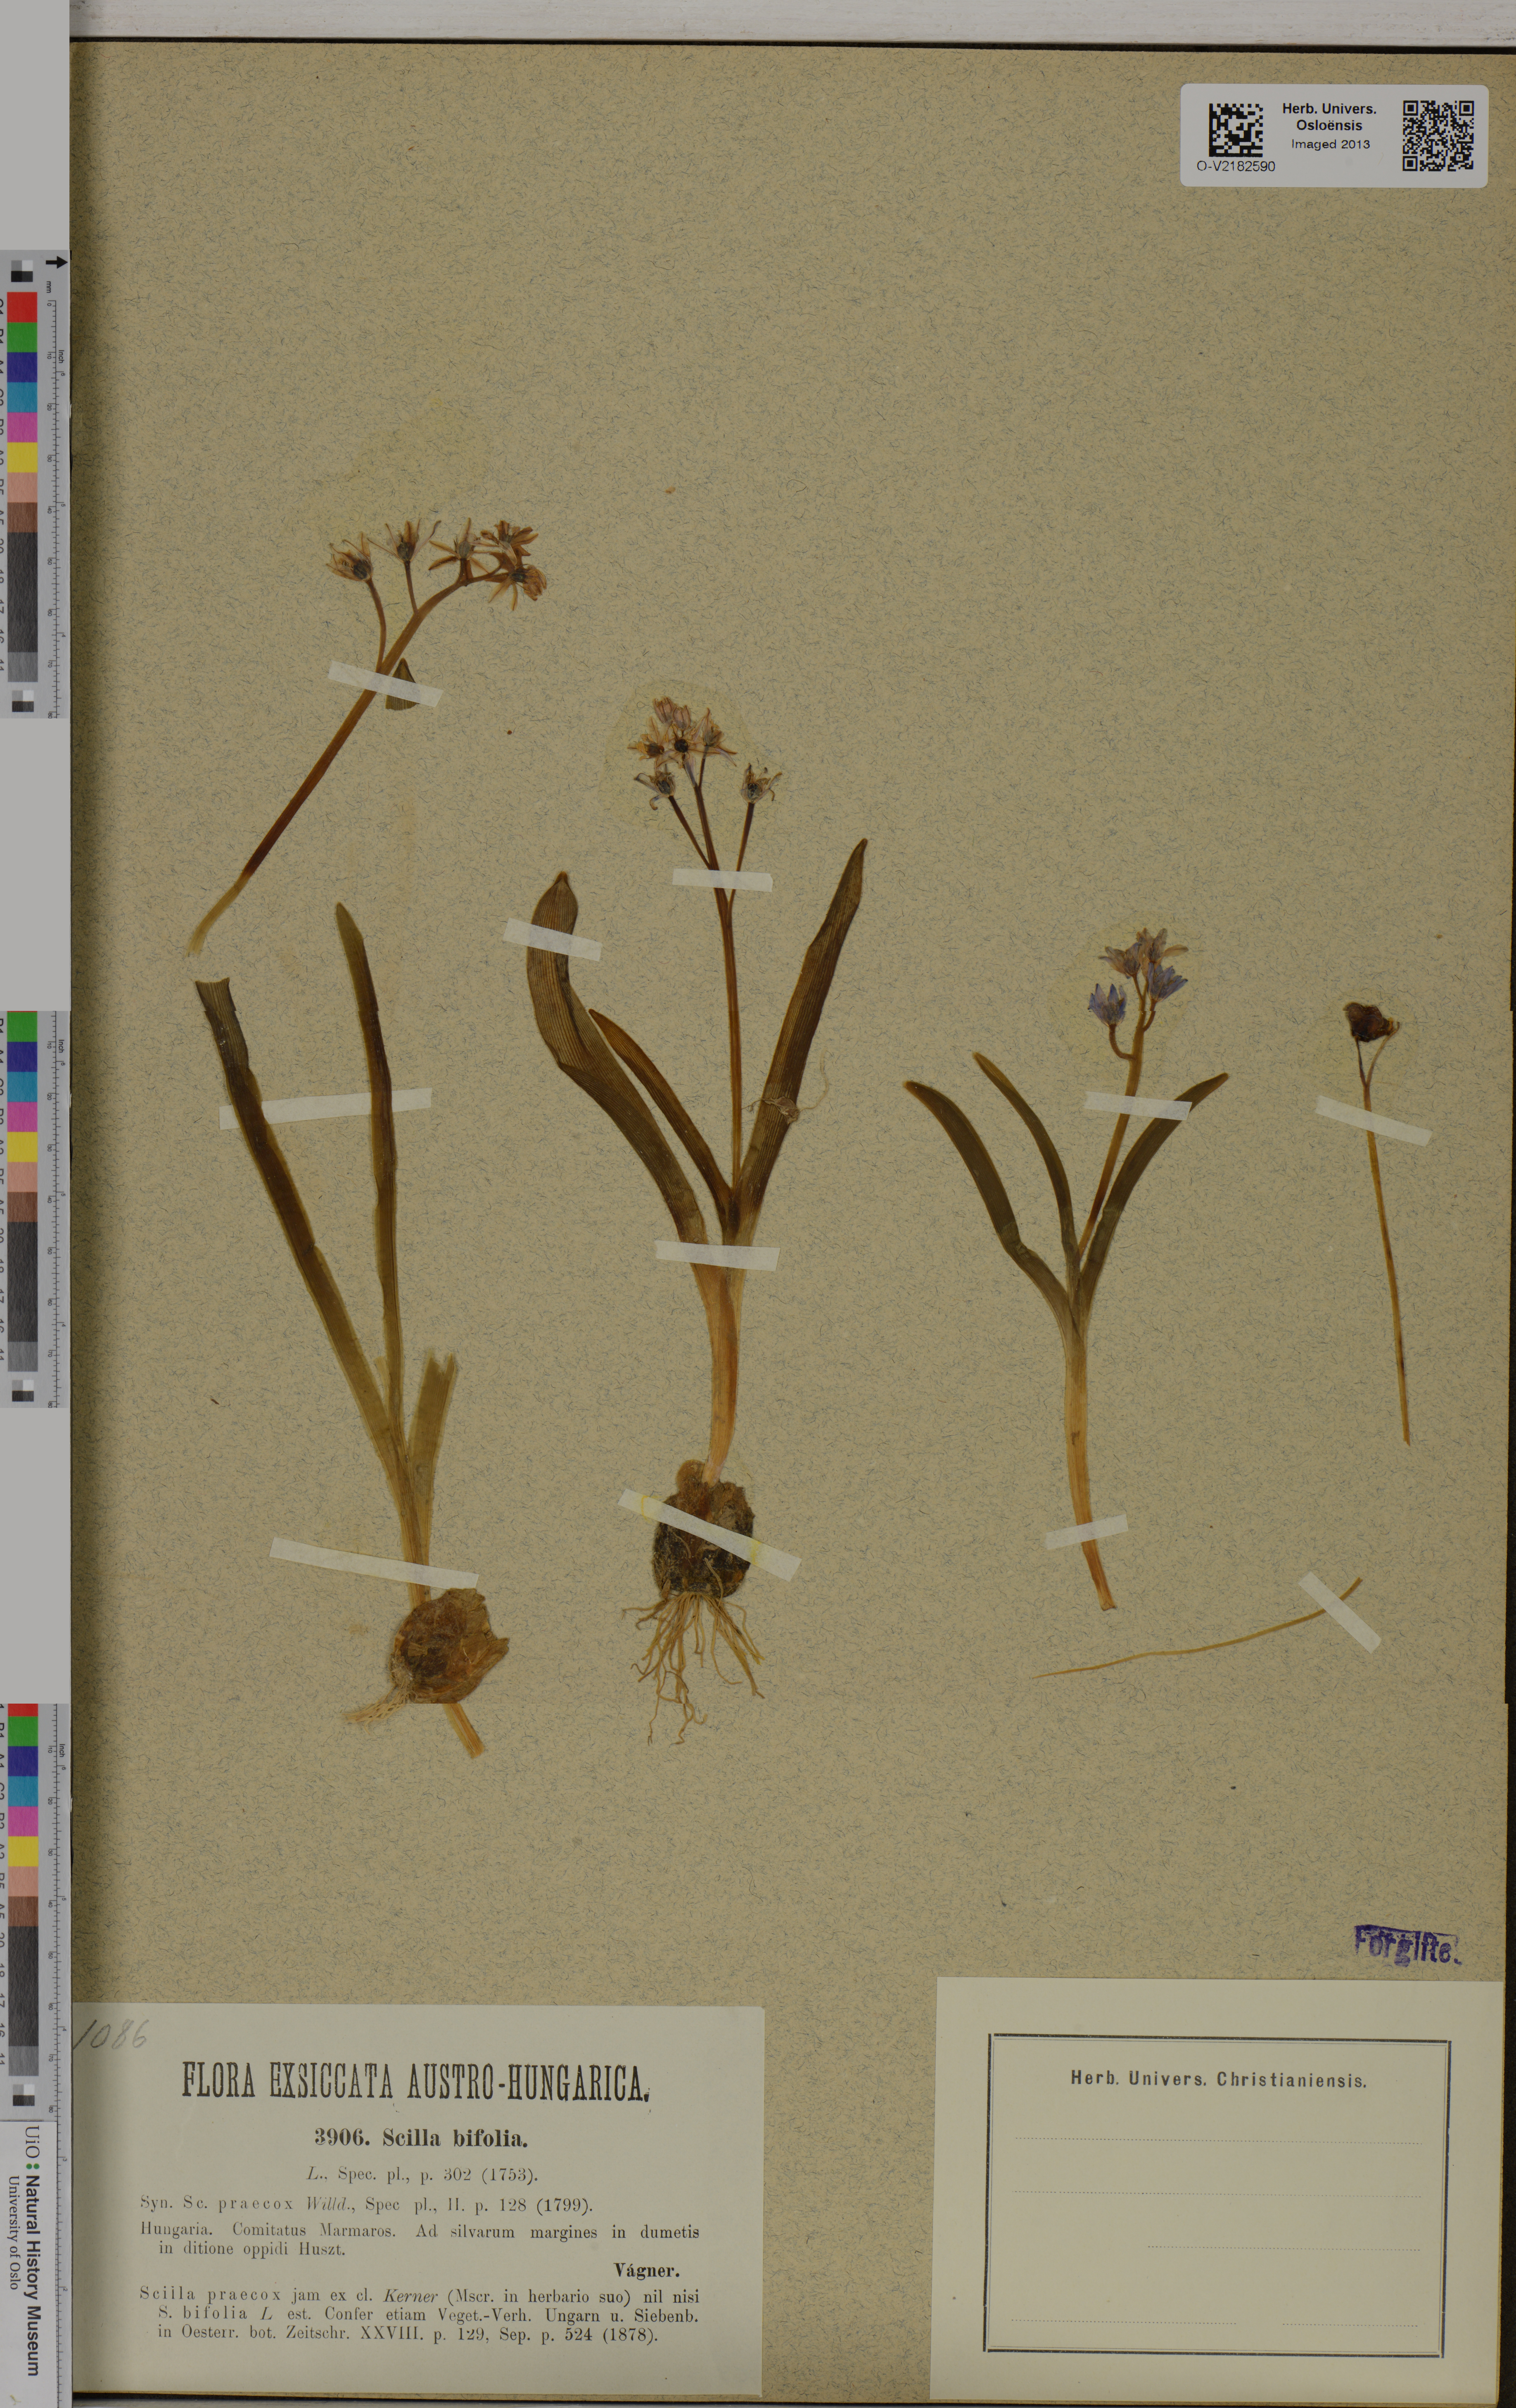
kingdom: Plantae
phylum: Tracheophyta
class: Liliopsida
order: Asparagales
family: Asparagaceae
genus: Scilla
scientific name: Scilla bifolia
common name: Alpine squill
